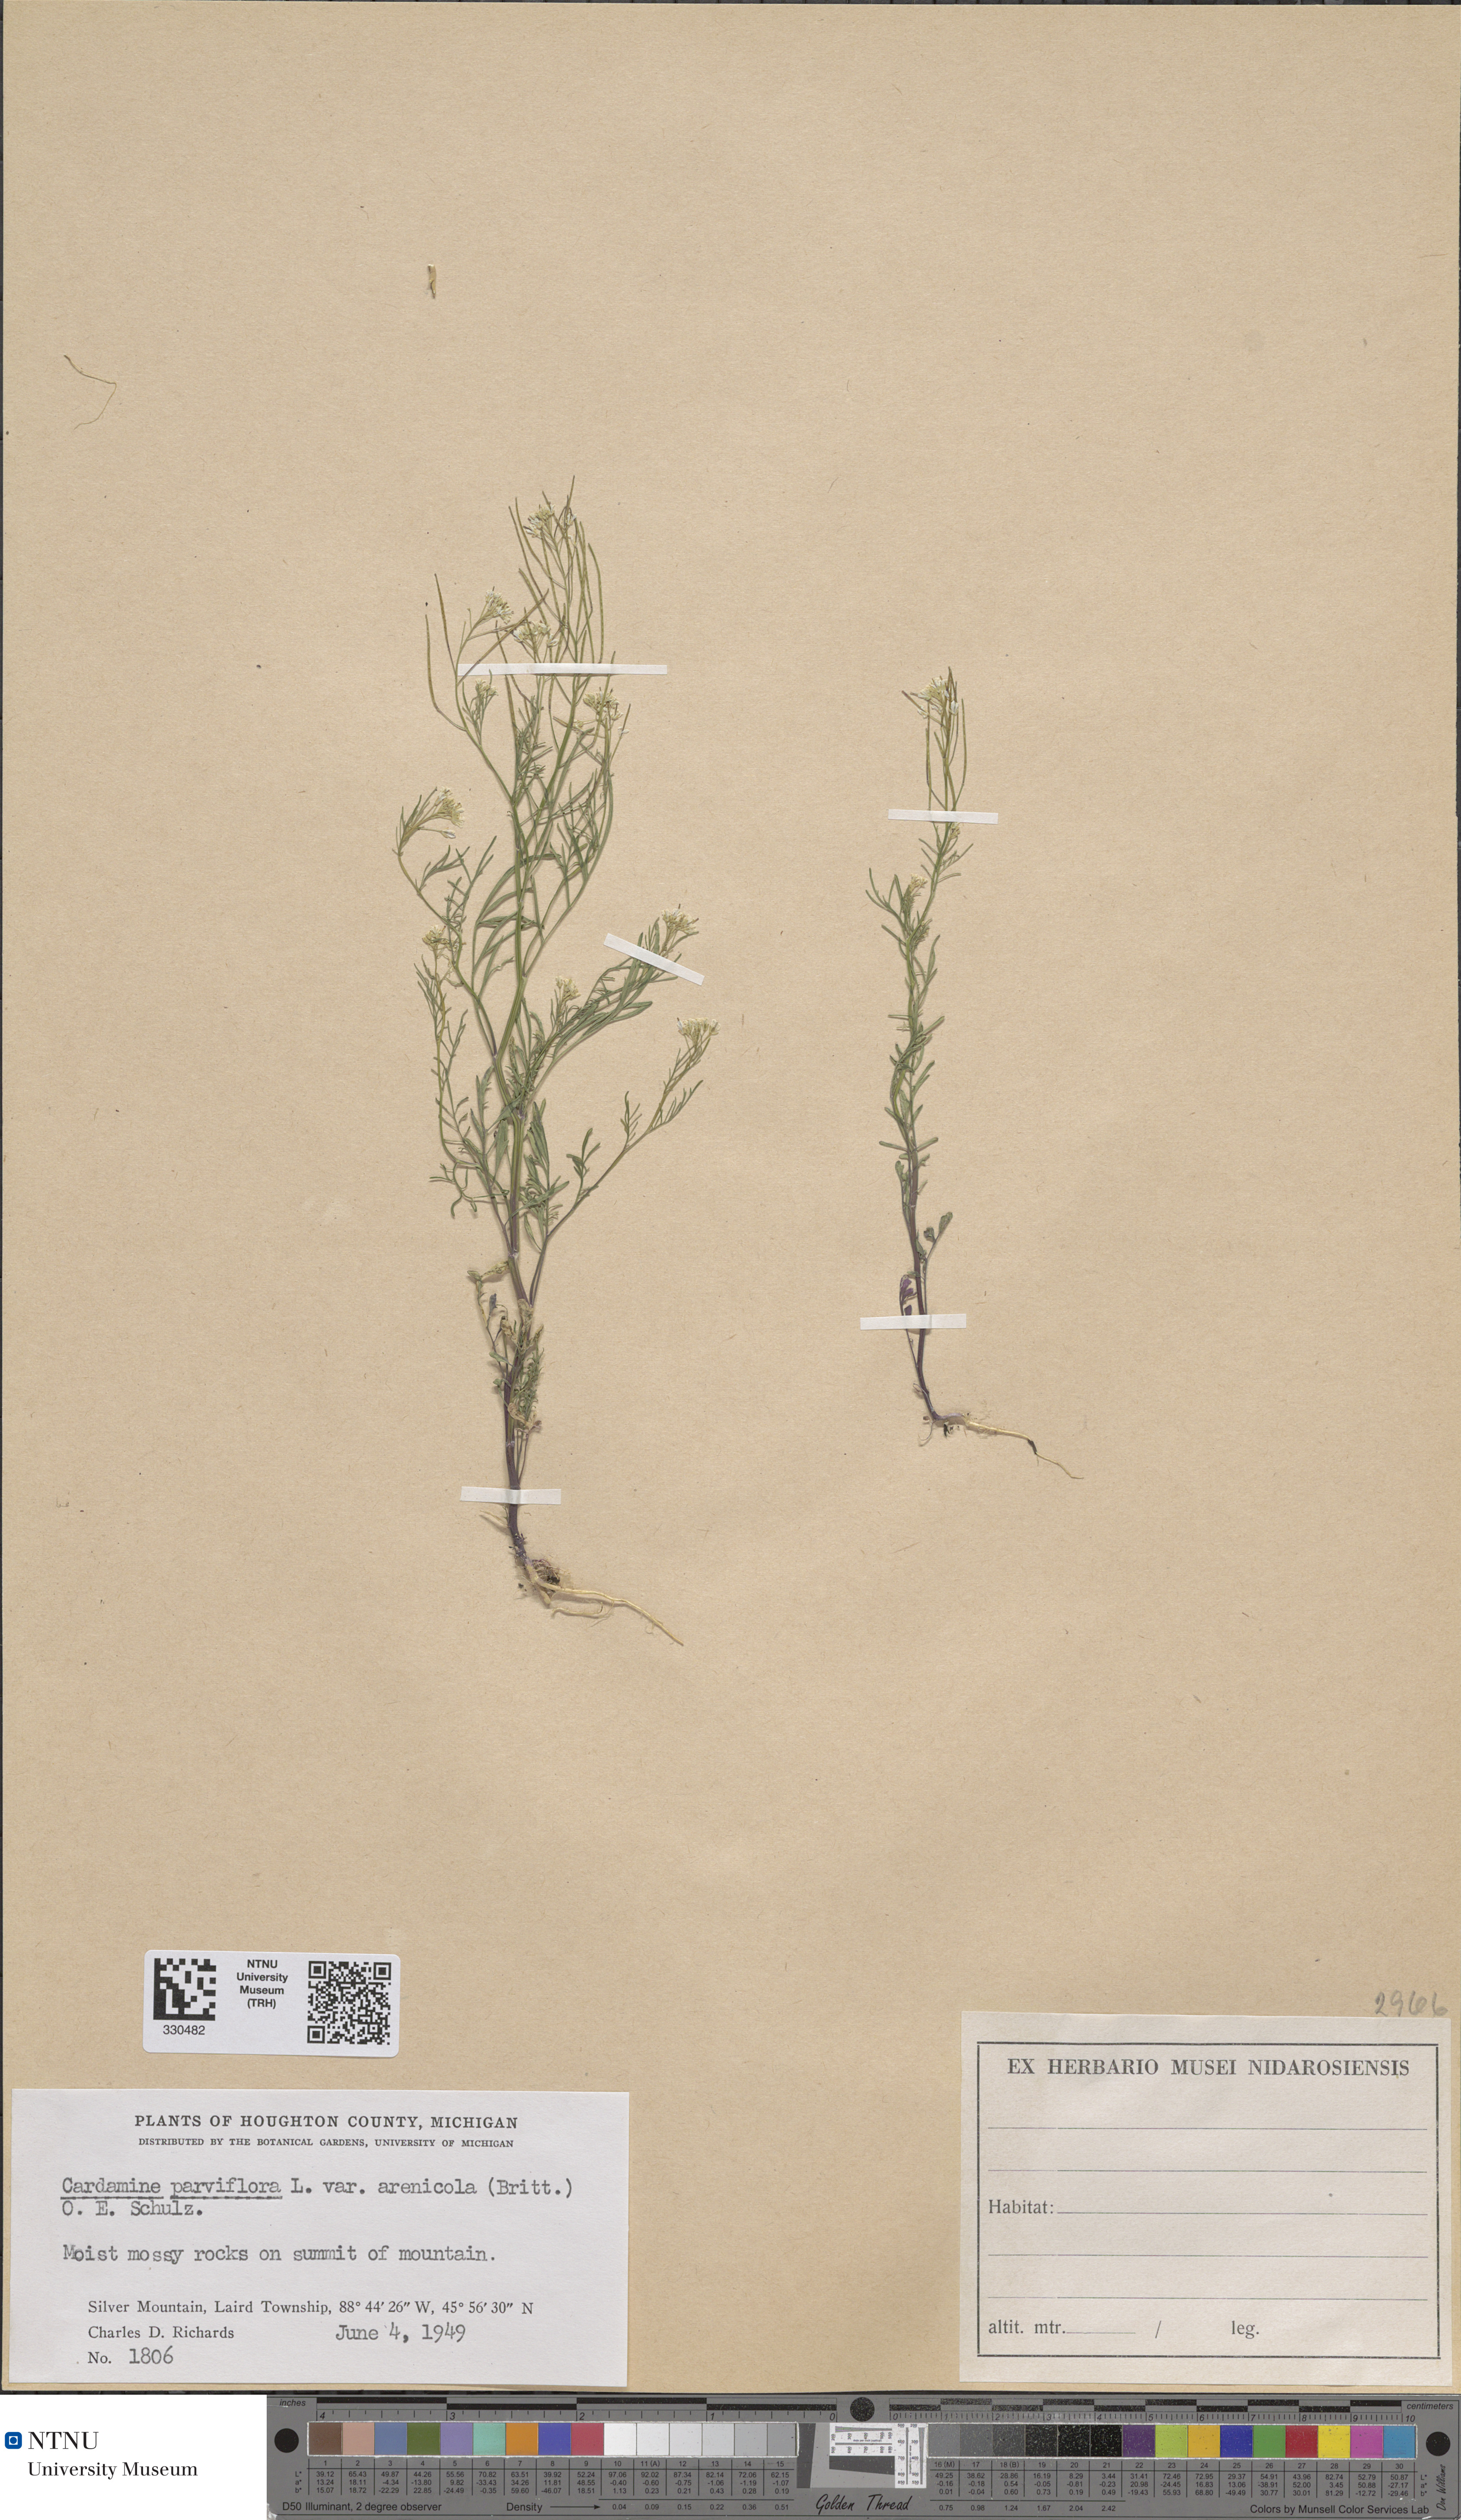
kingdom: Plantae
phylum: Tracheophyta
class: Magnoliopsida
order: Brassicales
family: Brassicaceae
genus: Cardamine
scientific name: Cardamine parviflora
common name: Sand bittercress
